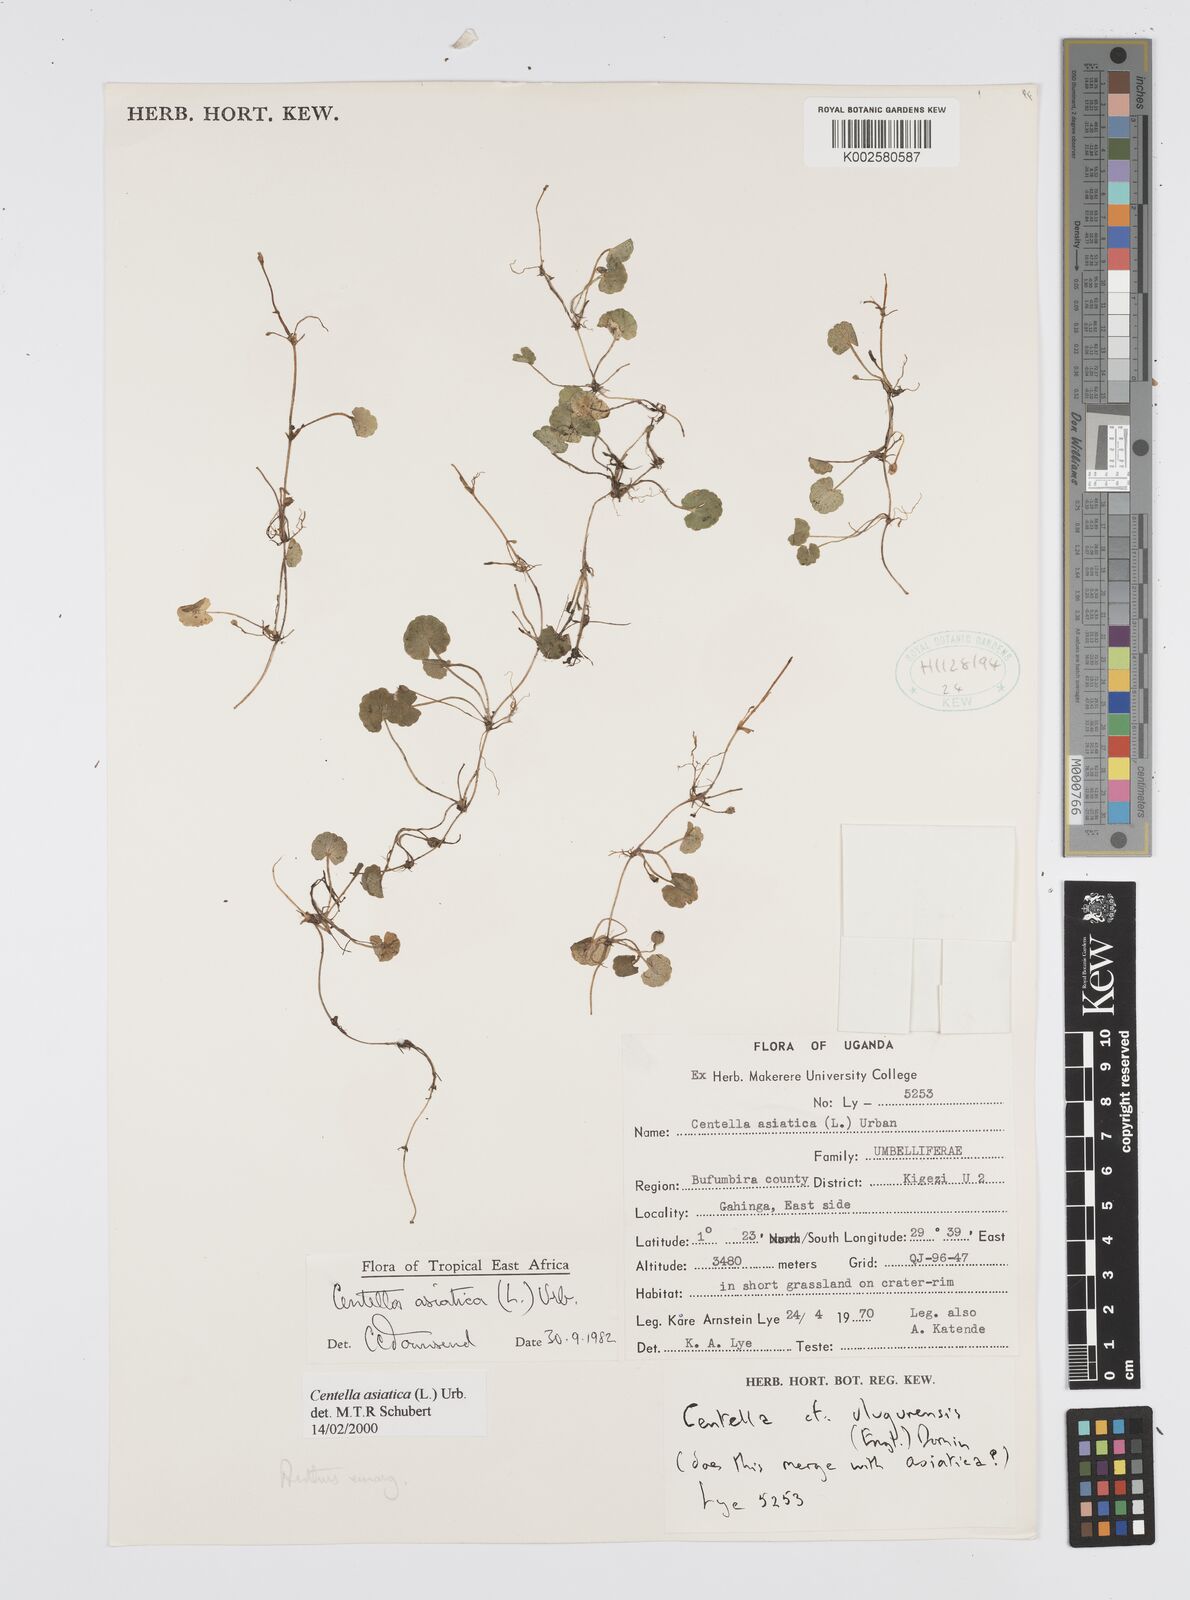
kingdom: Plantae
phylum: Tracheophyta
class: Magnoliopsida
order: Apiales
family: Apiaceae
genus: Centella
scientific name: Centella asiatica
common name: Spadeleaf
